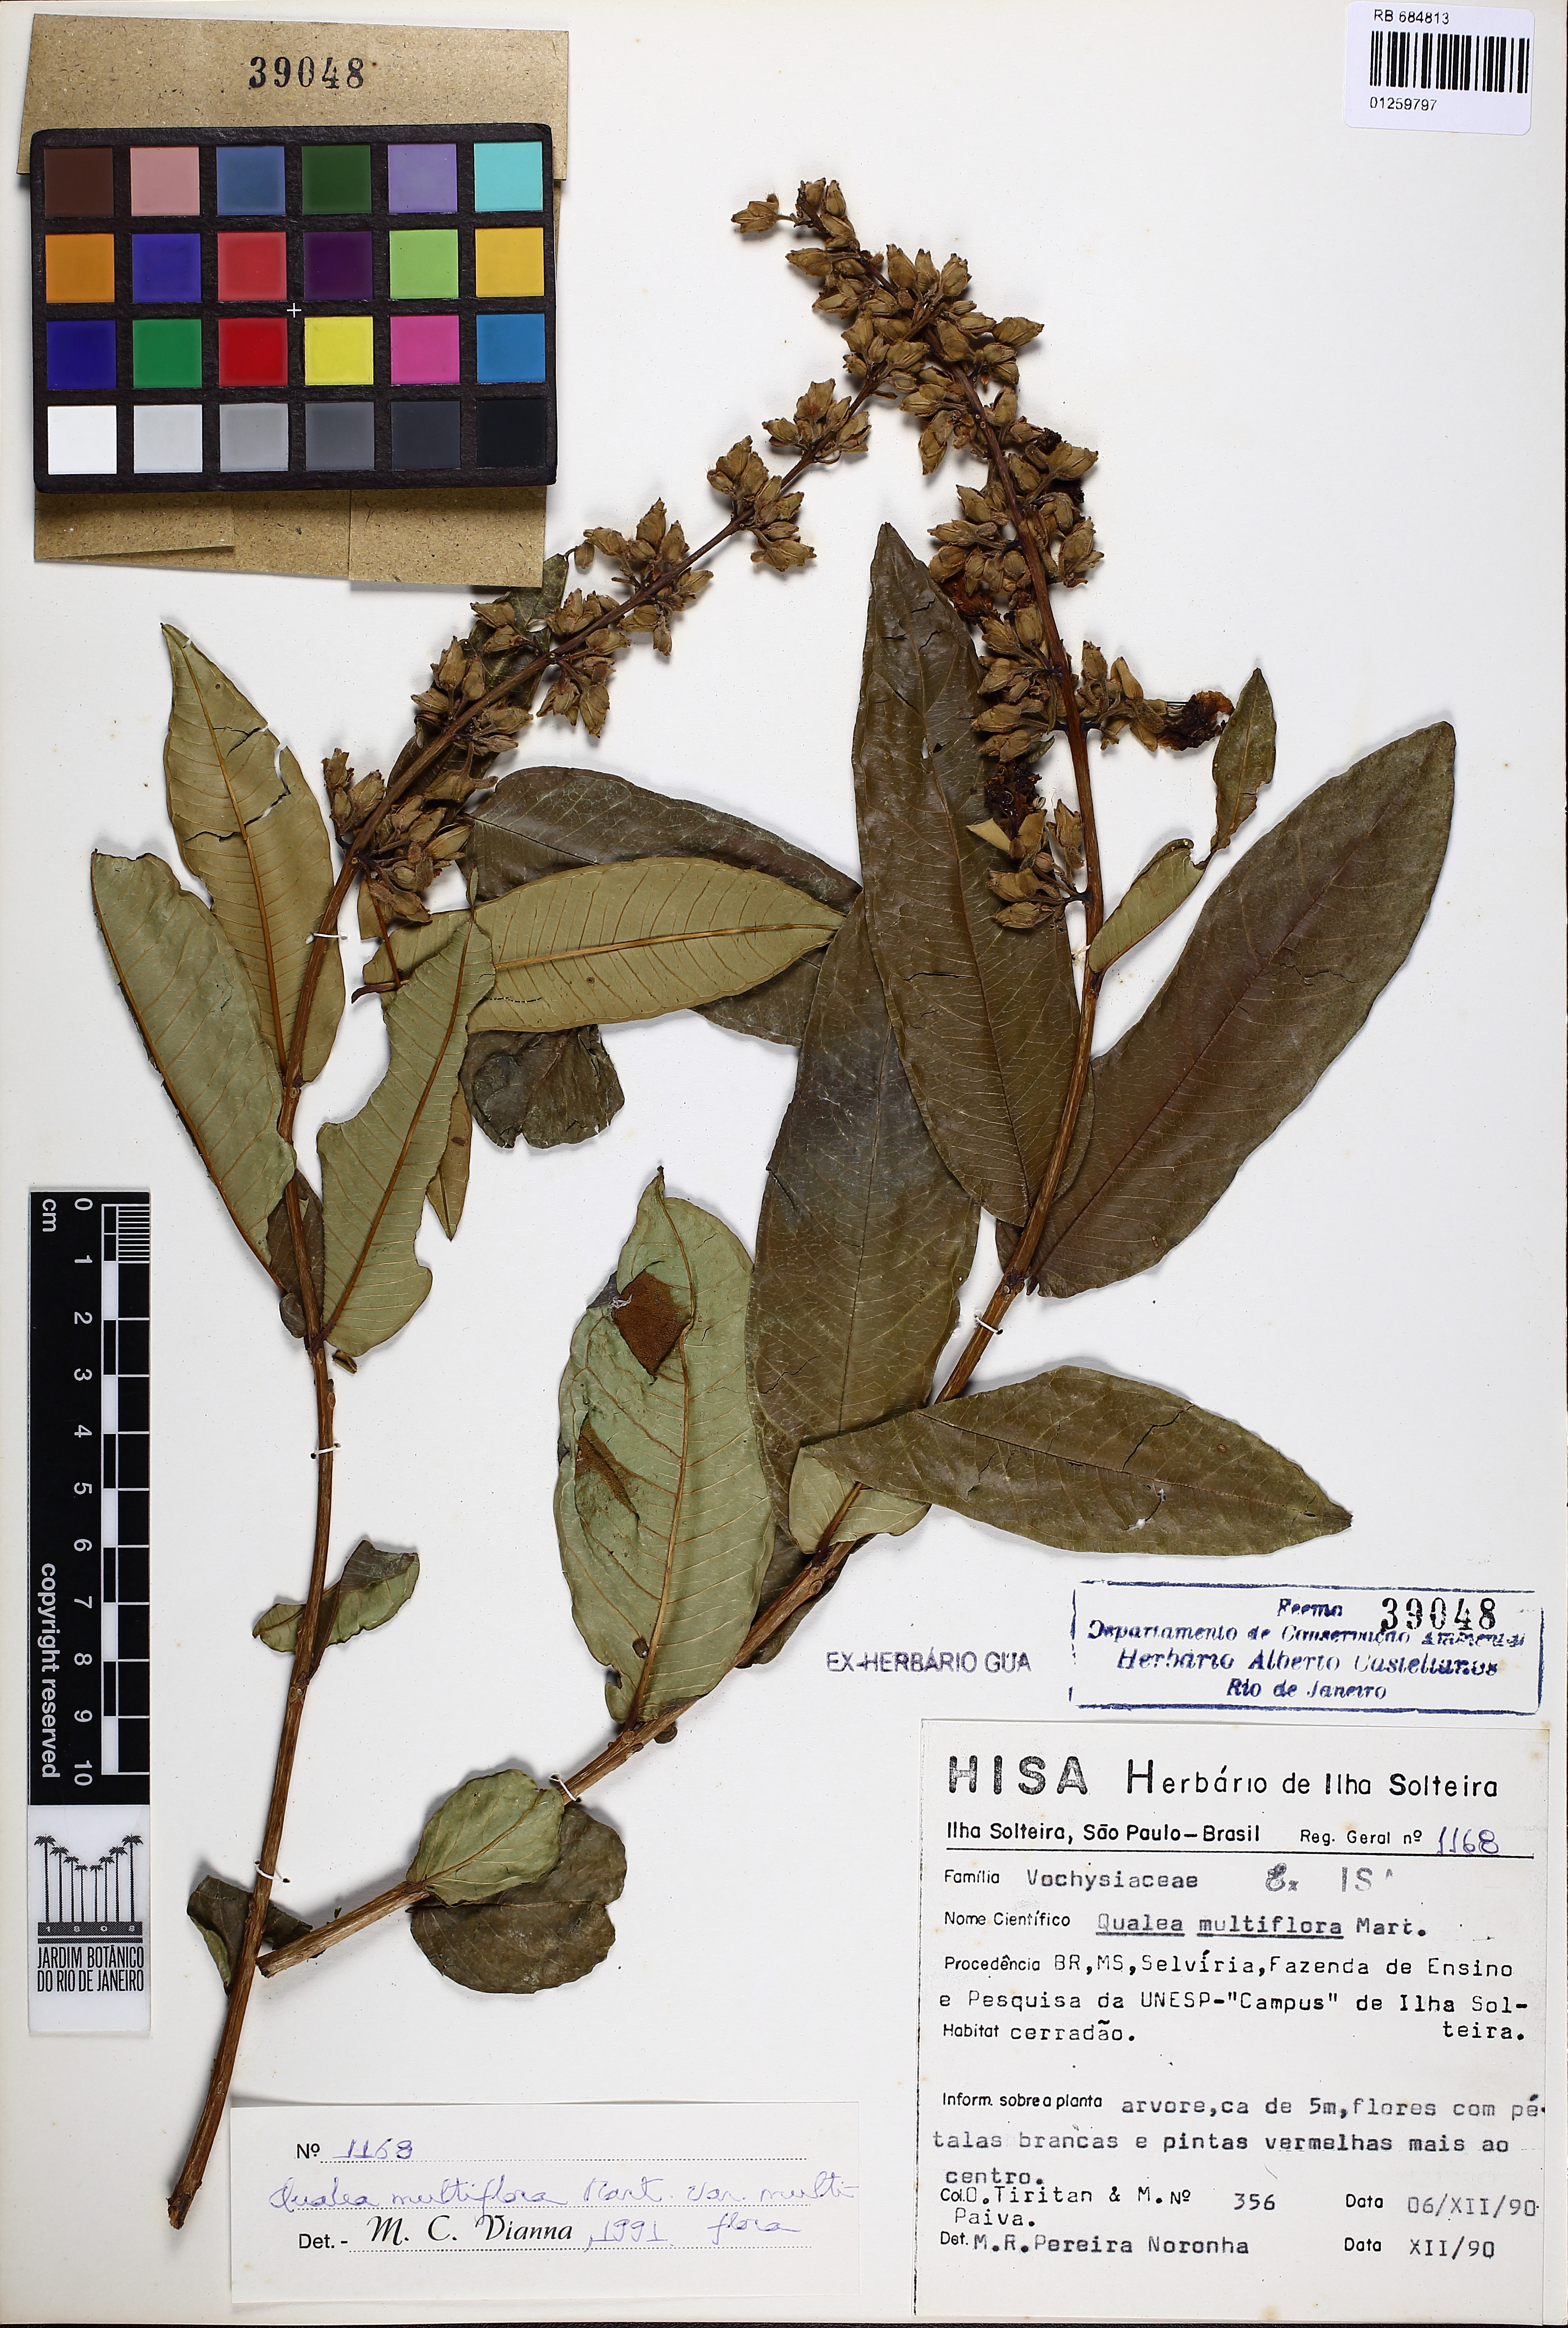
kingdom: Plantae
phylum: Tracheophyta
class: Magnoliopsida
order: Myrtales
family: Vochysiaceae
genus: Qualea
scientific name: Qualea multiflora
